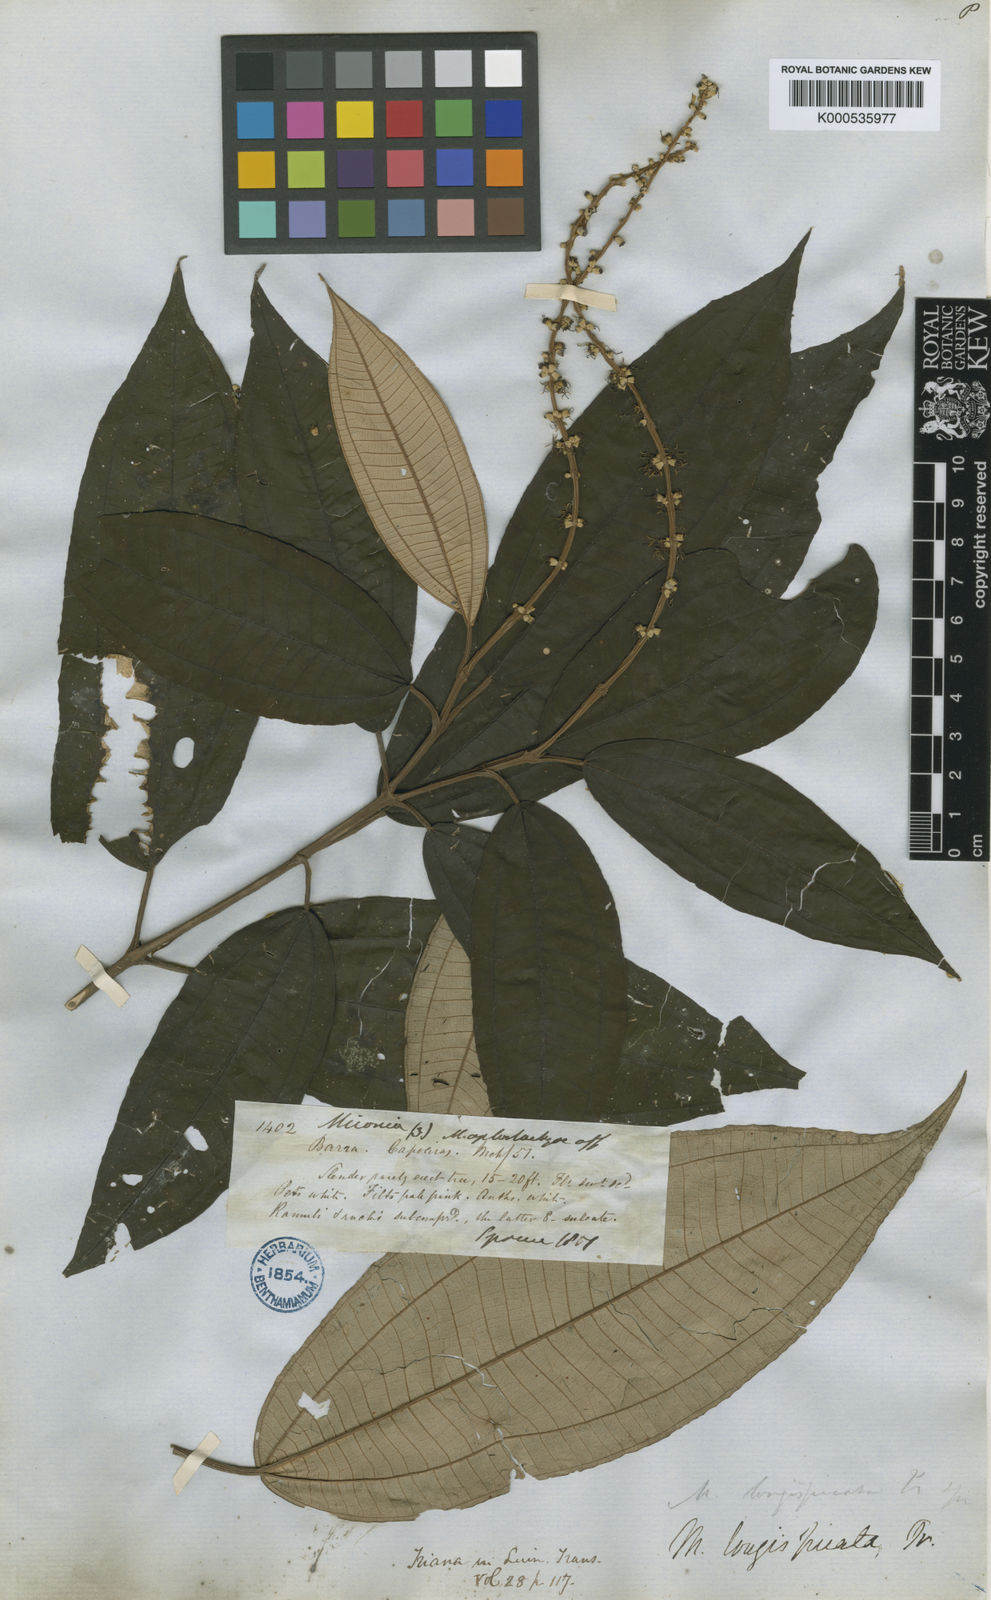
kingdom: Plantae
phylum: Tracheophyta
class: Magnoliopsida
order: Myrtales
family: Melastomataceae
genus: Miconia
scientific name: Miconia longispicata
